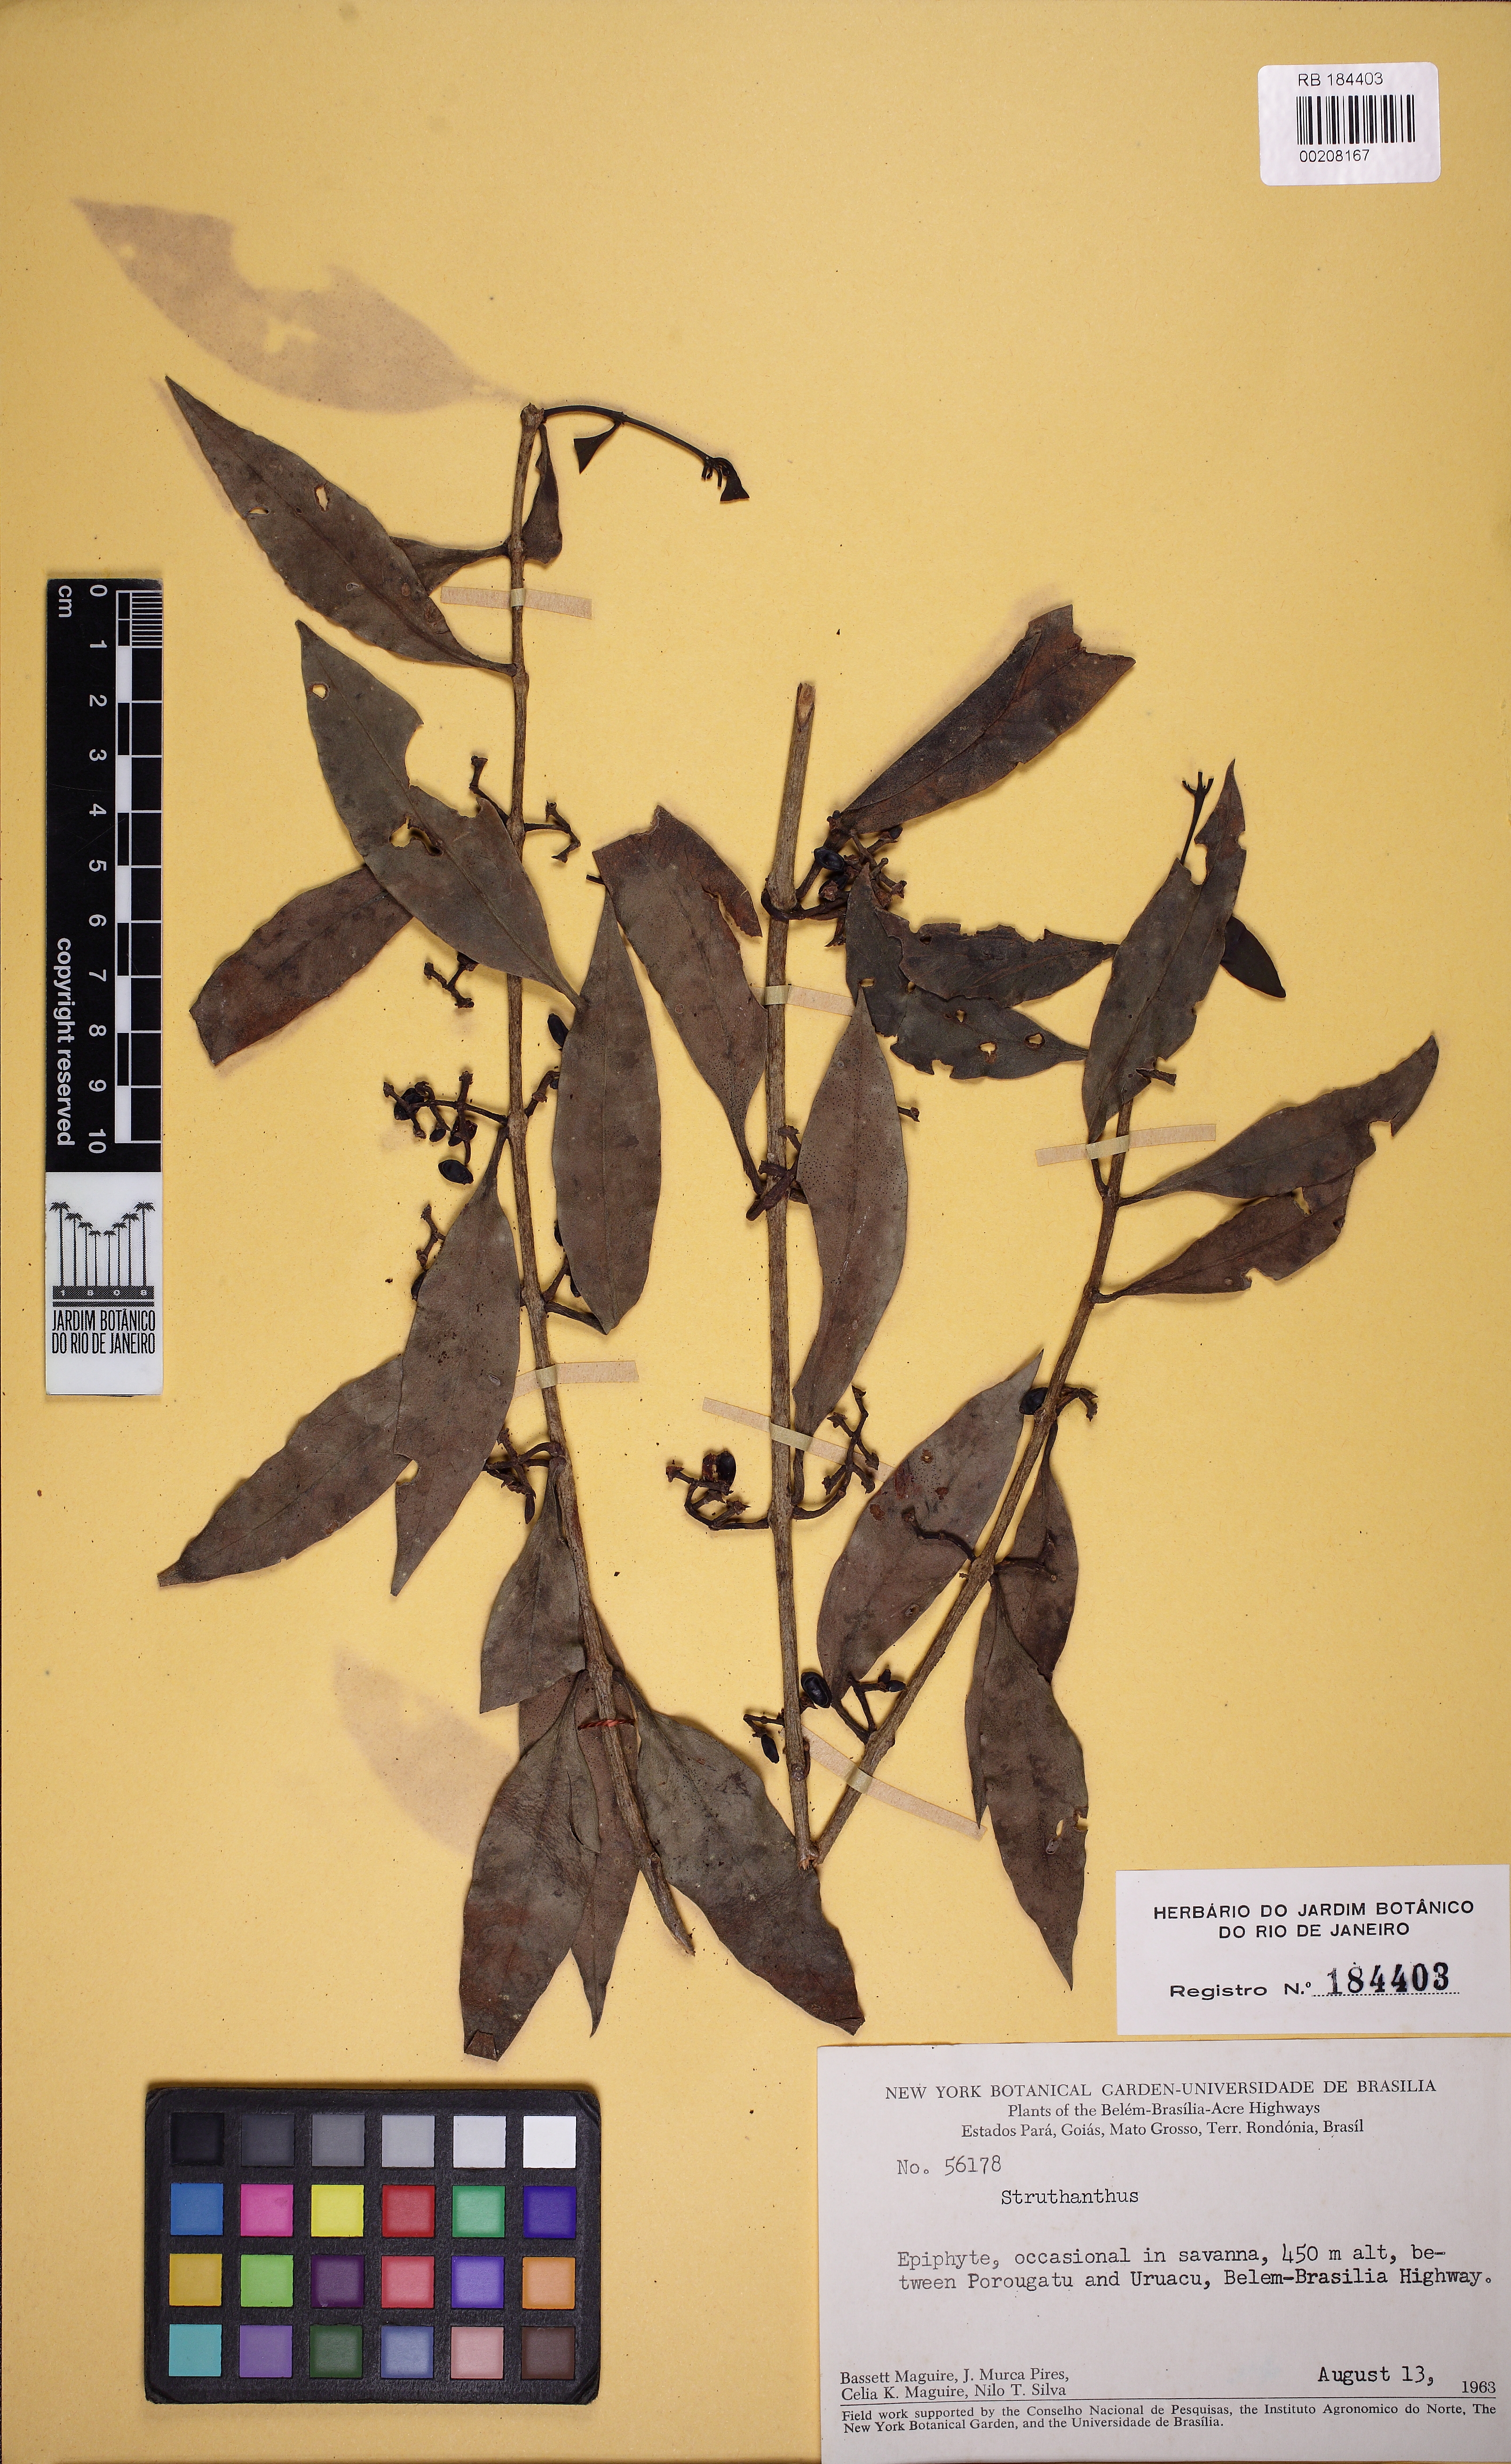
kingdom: Plantae
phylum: Tracheophyta
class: Magnoliopsida
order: Santalales
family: Loranthaceae
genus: Struthanthus
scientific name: Struthanthus
